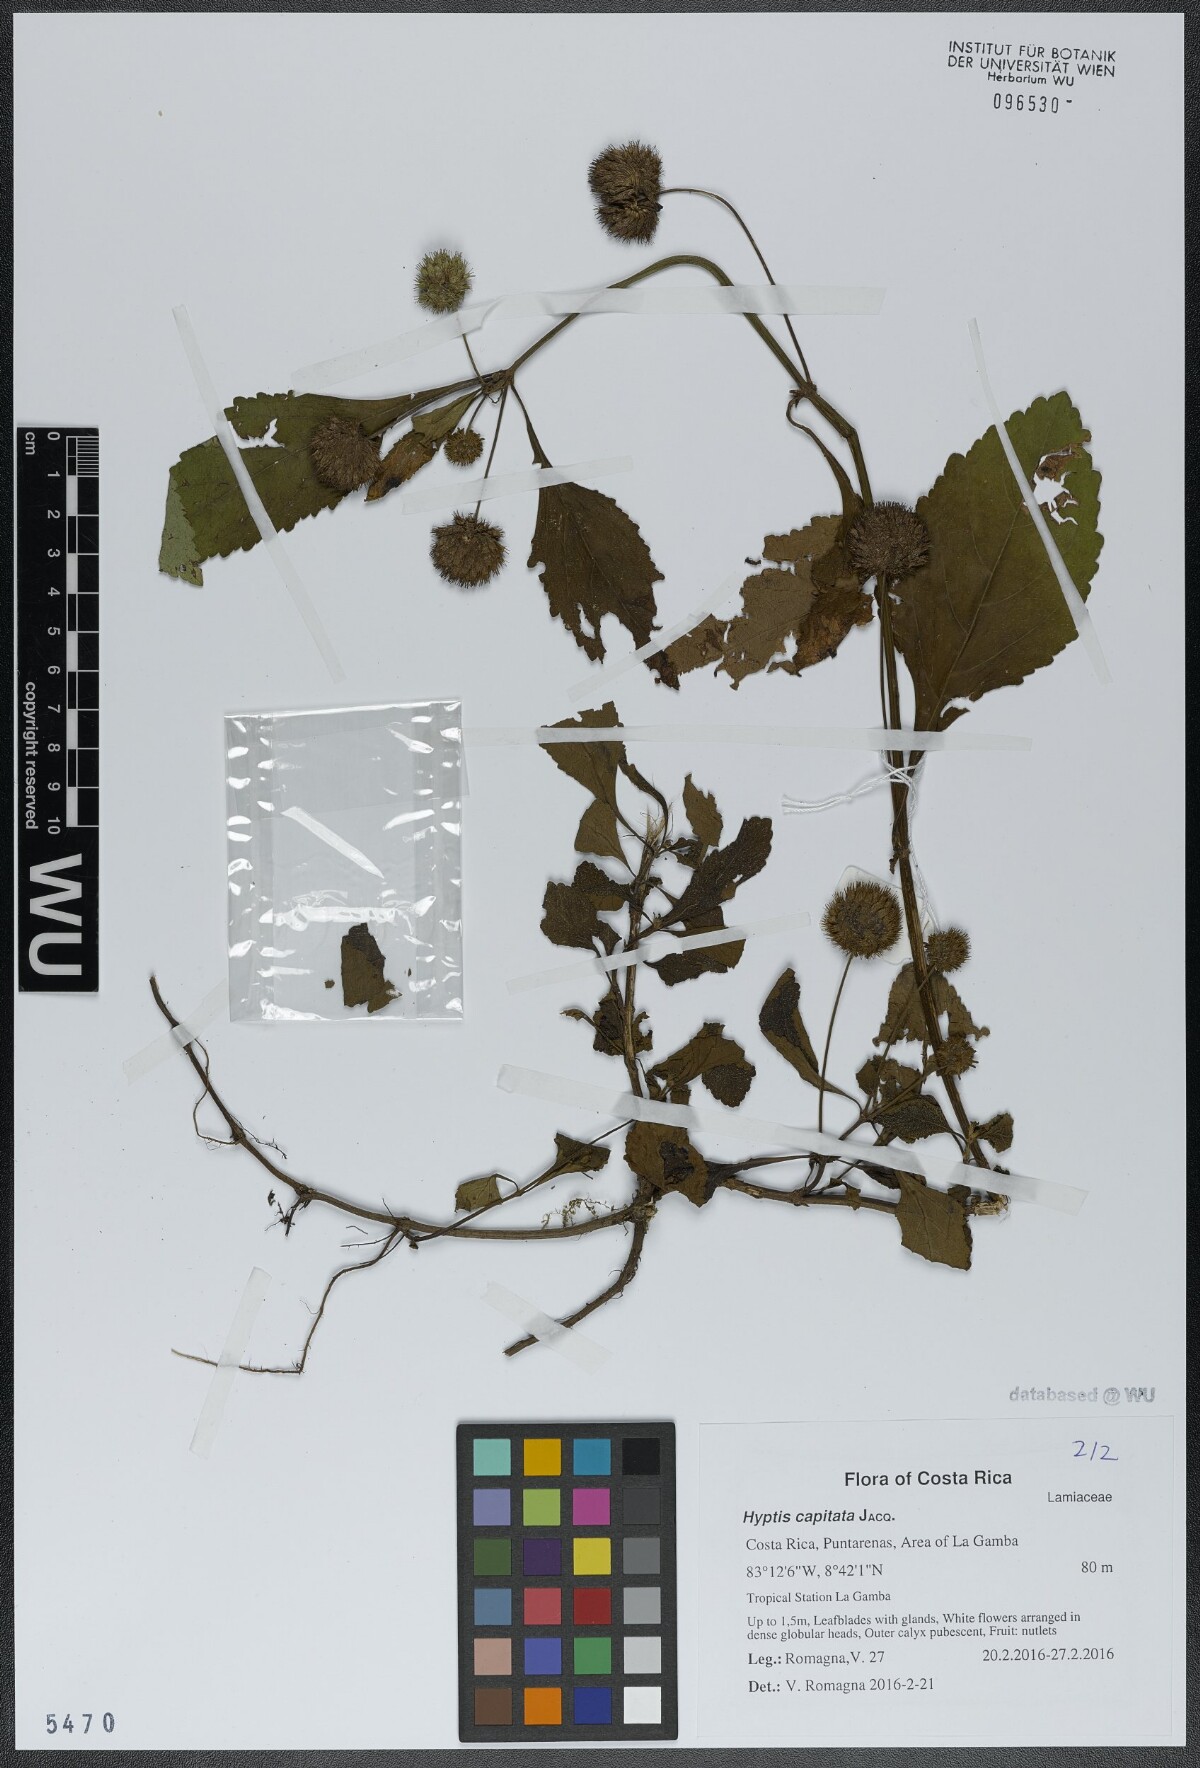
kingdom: Plantae
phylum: Tracheophyta
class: Magnoliopsida
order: Lamiales
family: Lamiaceae
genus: Hyptis
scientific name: Hyptis capitata
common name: False ironwort
